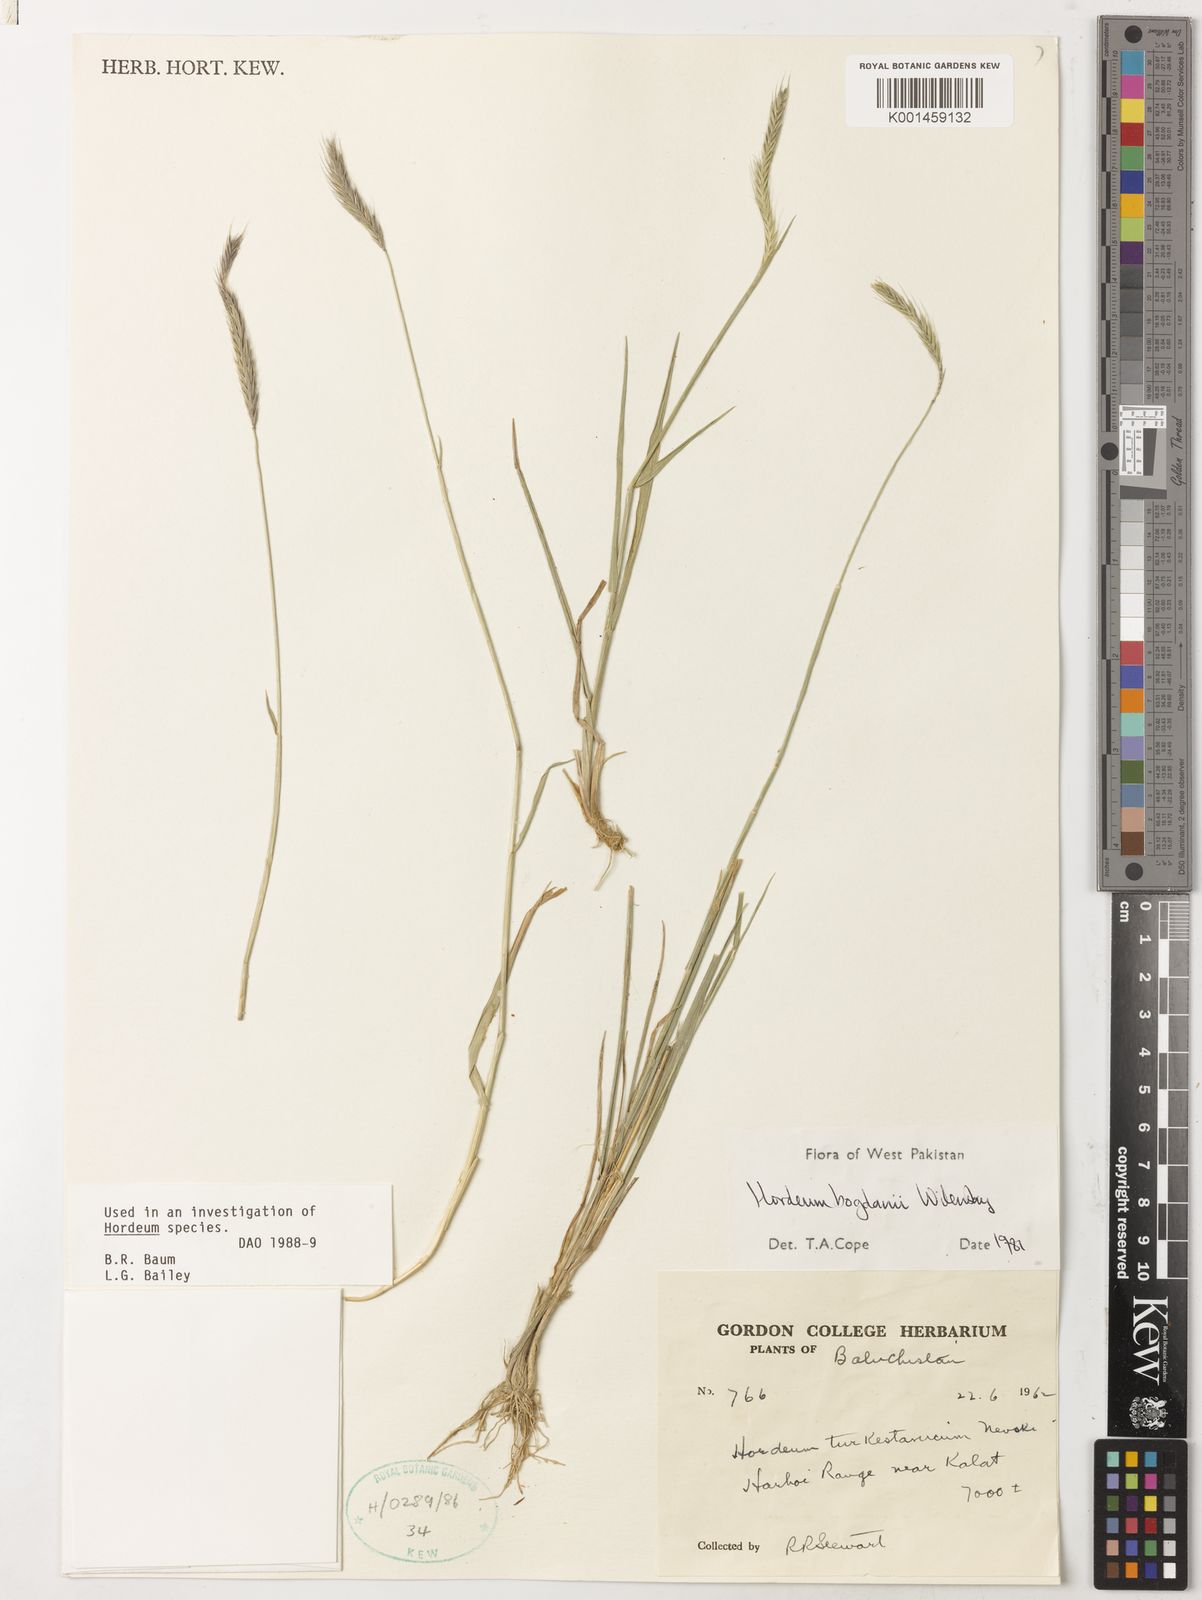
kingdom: Plantae
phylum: Tracheophyta
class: Liliopsida
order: Poales
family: Poaceae
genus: Hordeum
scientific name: Hordeum bogdanii
